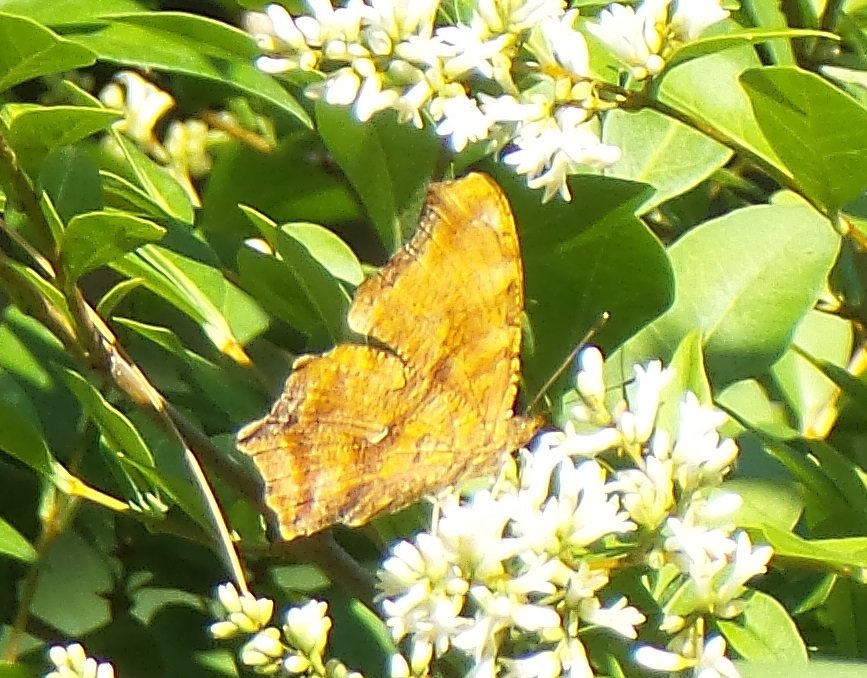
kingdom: Animalia
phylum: Arthropoda
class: Insecta
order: Lepidoptera
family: Nymphalidae
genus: Polygonia
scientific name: Polygonia interrogationis
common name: Question Mark
